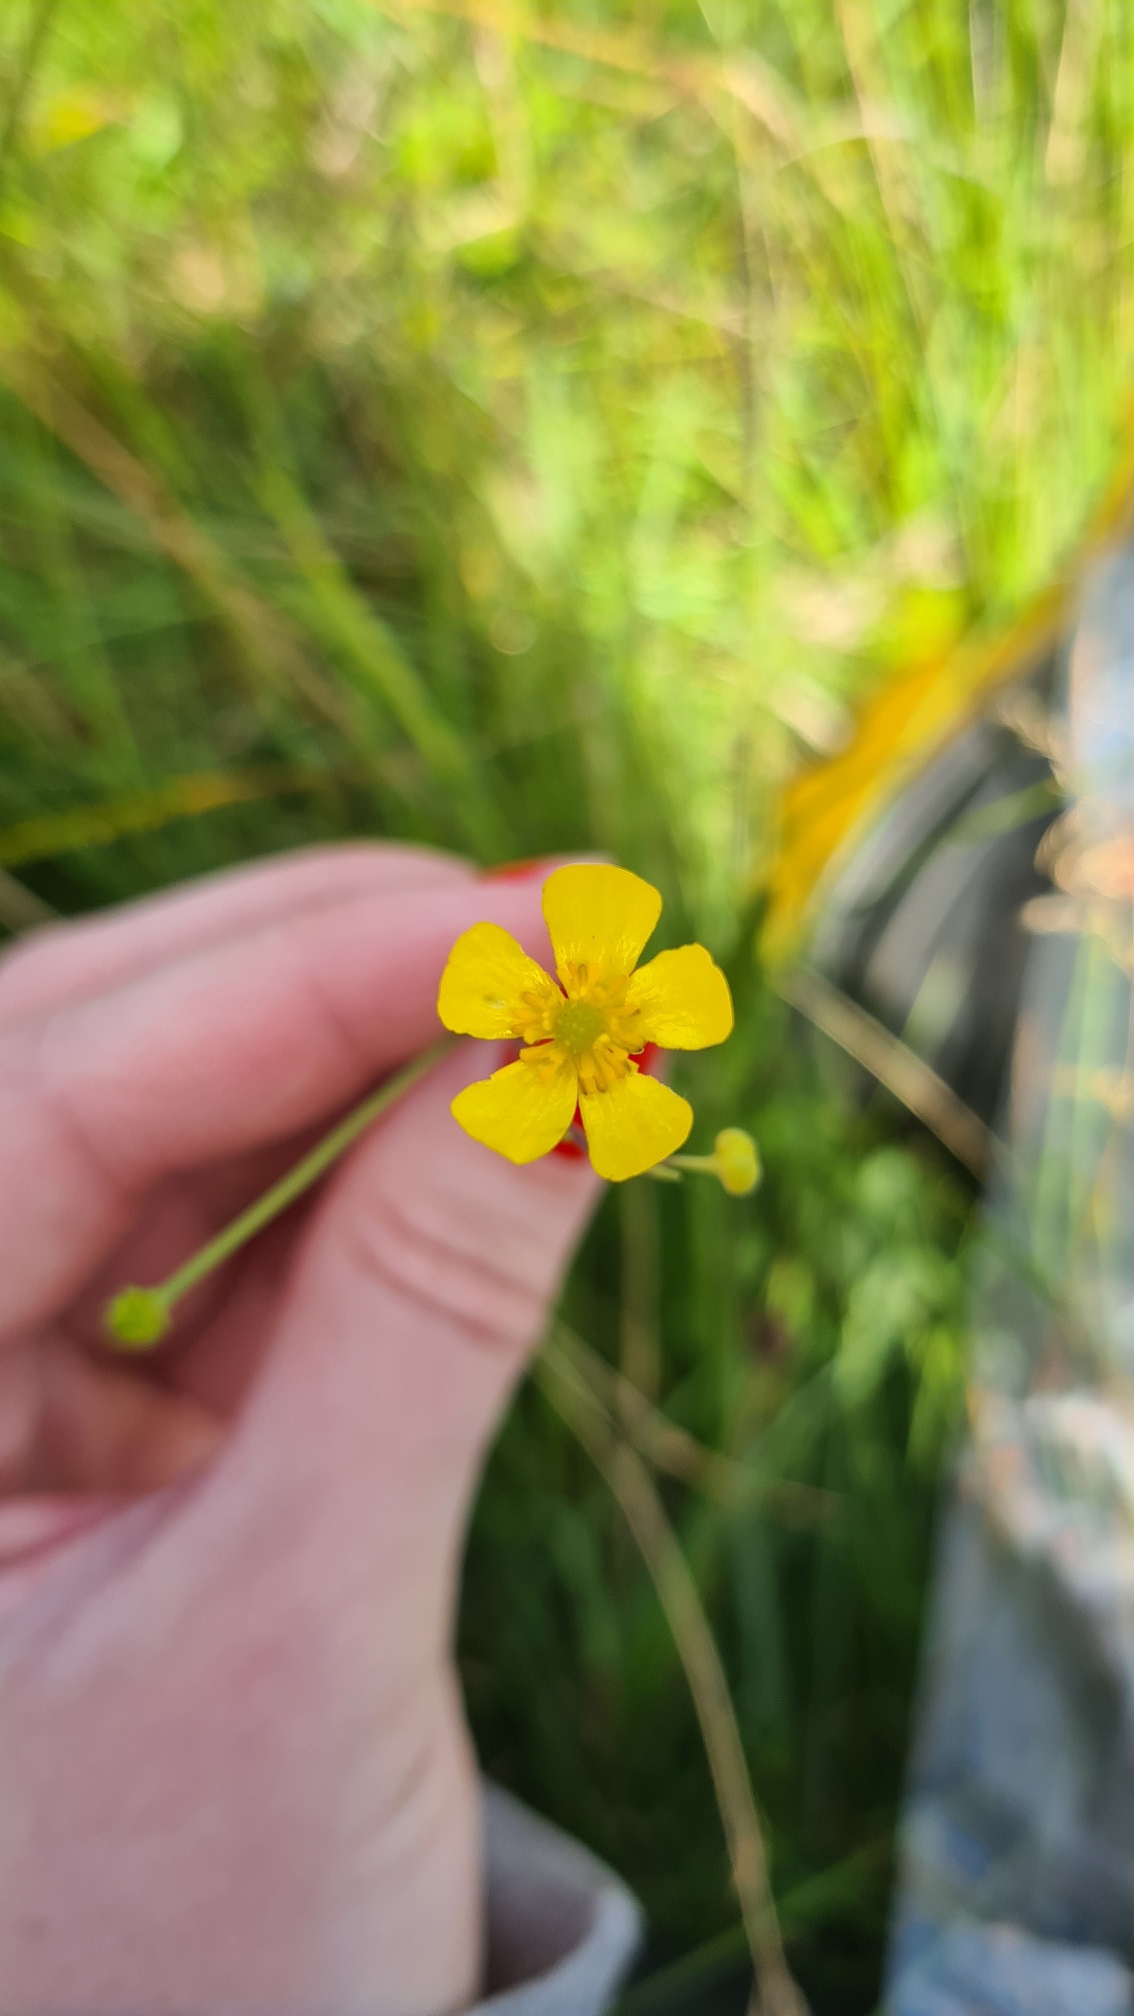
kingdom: Plantae
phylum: Tracheophyta
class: Magnoliopsida
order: Ranunculales
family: Ranunculaceae
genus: Ranunculus
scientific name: Ranunculus flammula
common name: Kær-ranunkel
